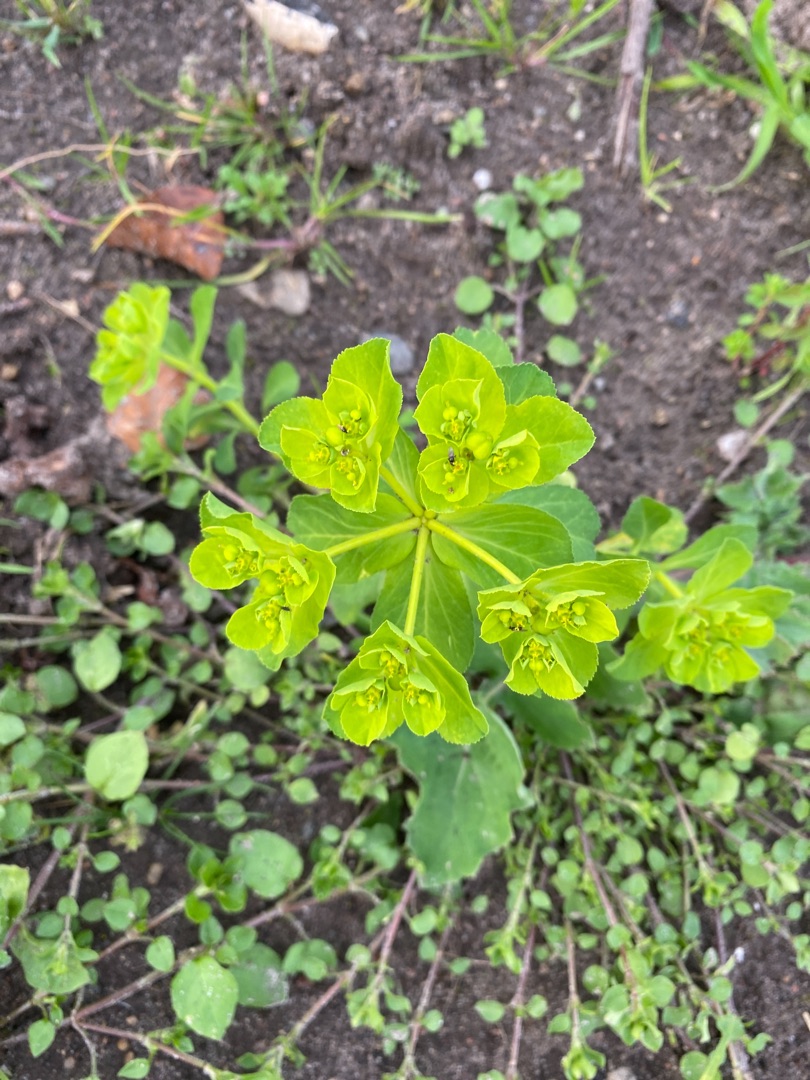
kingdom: Plantae
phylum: Tracheophyta
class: Magnoliopsida
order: Malpighiales
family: Euphorbiaceae
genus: Euphorbia
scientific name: Euphorbia helioscopia
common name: Skærm-vortemælk
